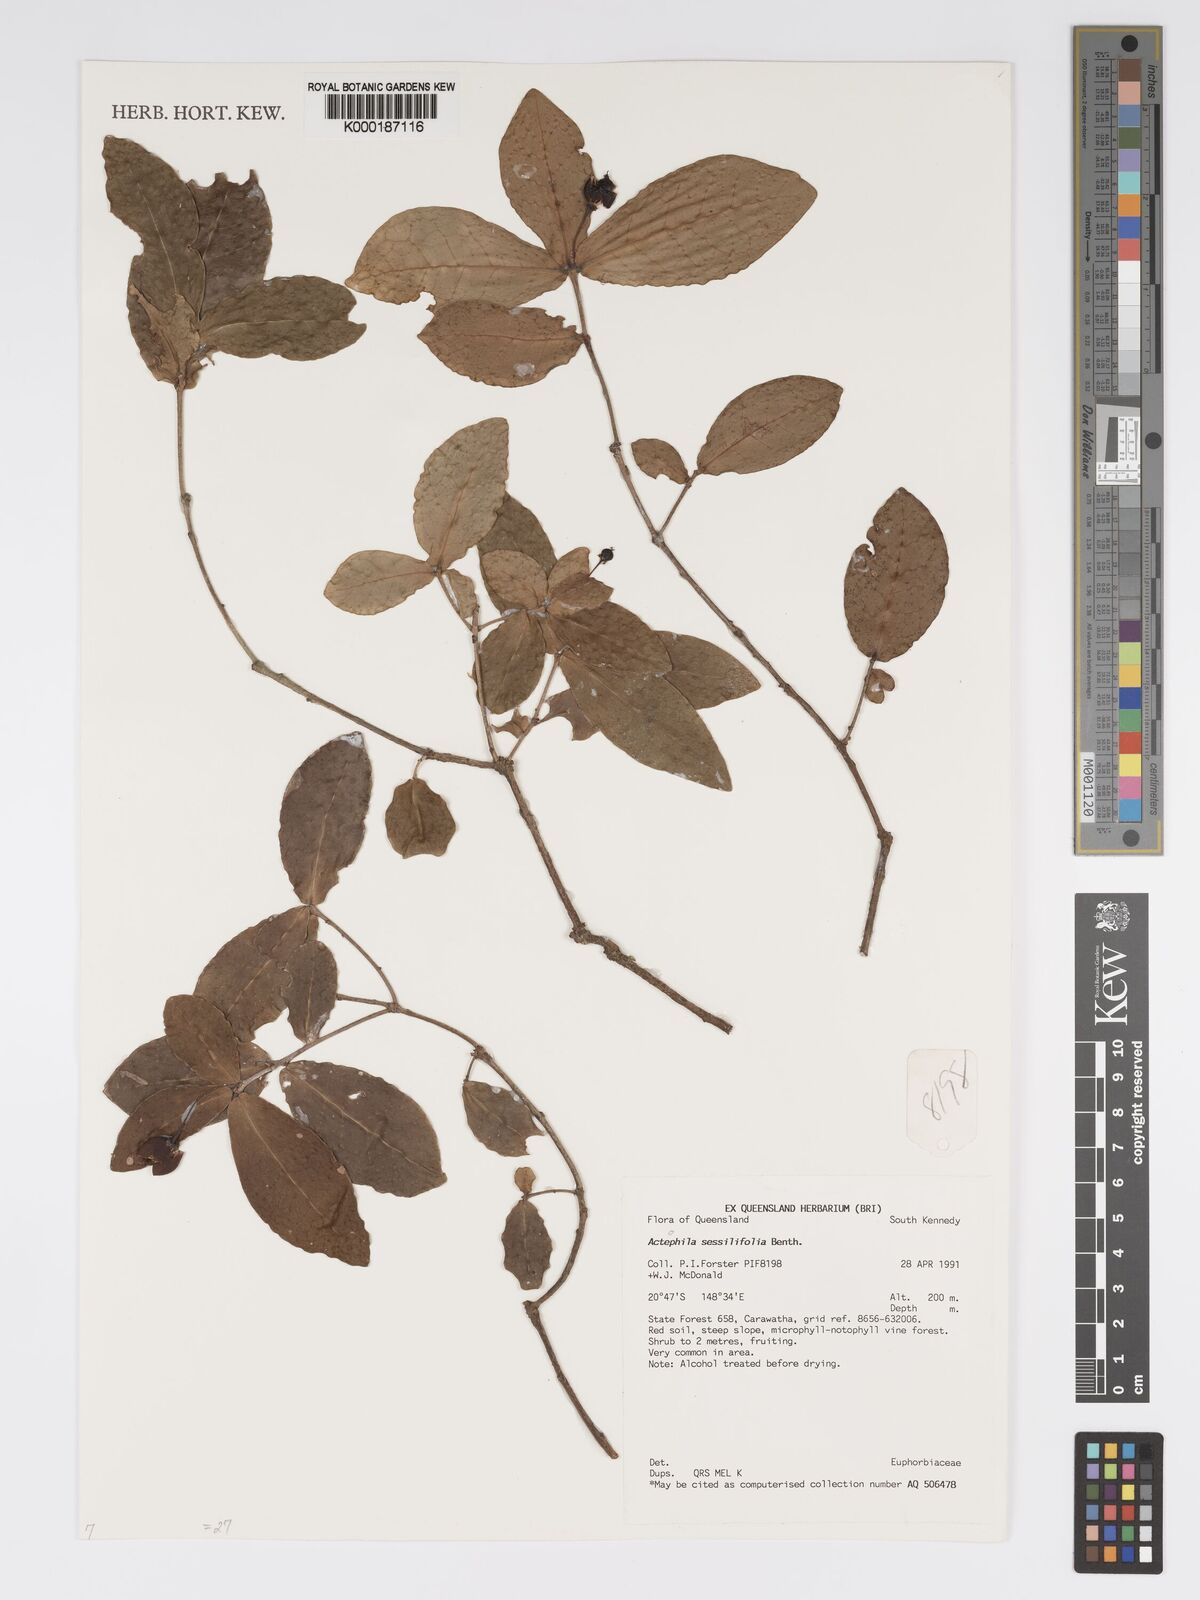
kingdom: Plantae
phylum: Tracheophyta
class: Magnoliopsida
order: Malpighiales
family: Phyllanthaceae
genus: Actephila
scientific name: Actephila sessilifolia
